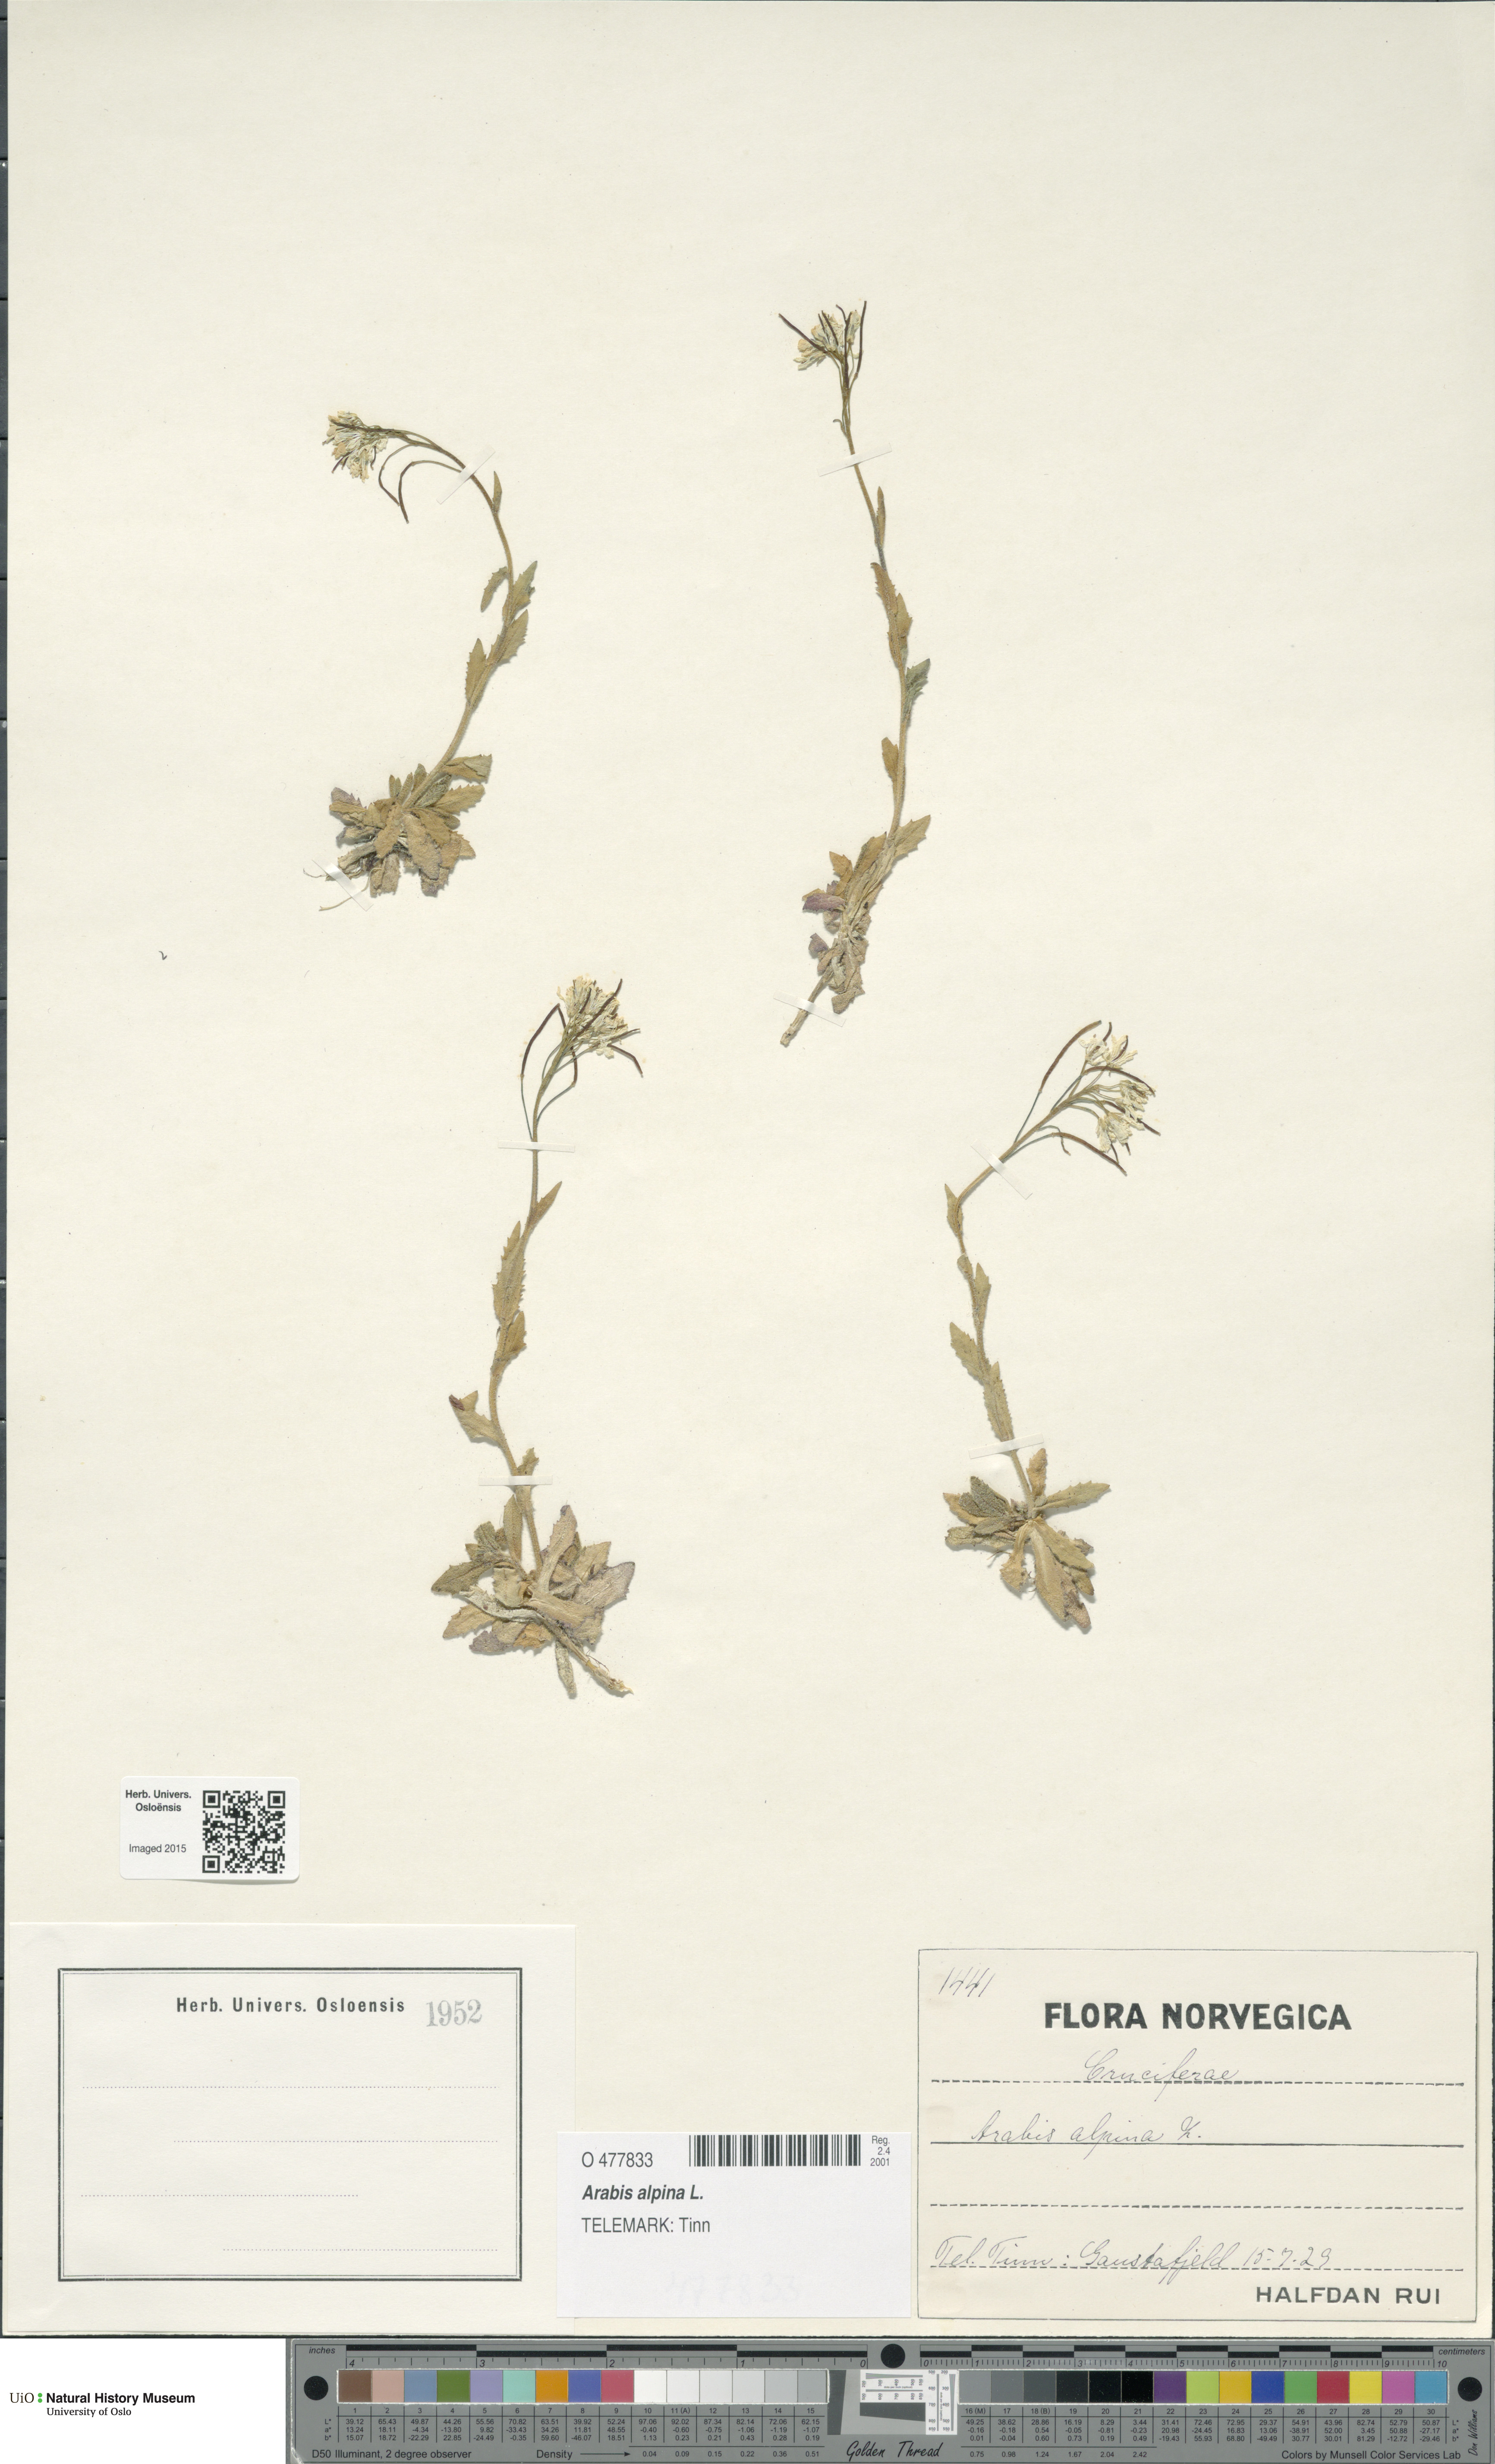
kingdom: Plantae
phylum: Tracheophyta
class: Magnoliopsida
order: Brassicales
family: Brassicaceae
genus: Arabis
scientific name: Arabis alpina
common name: Alpine rock-cress
